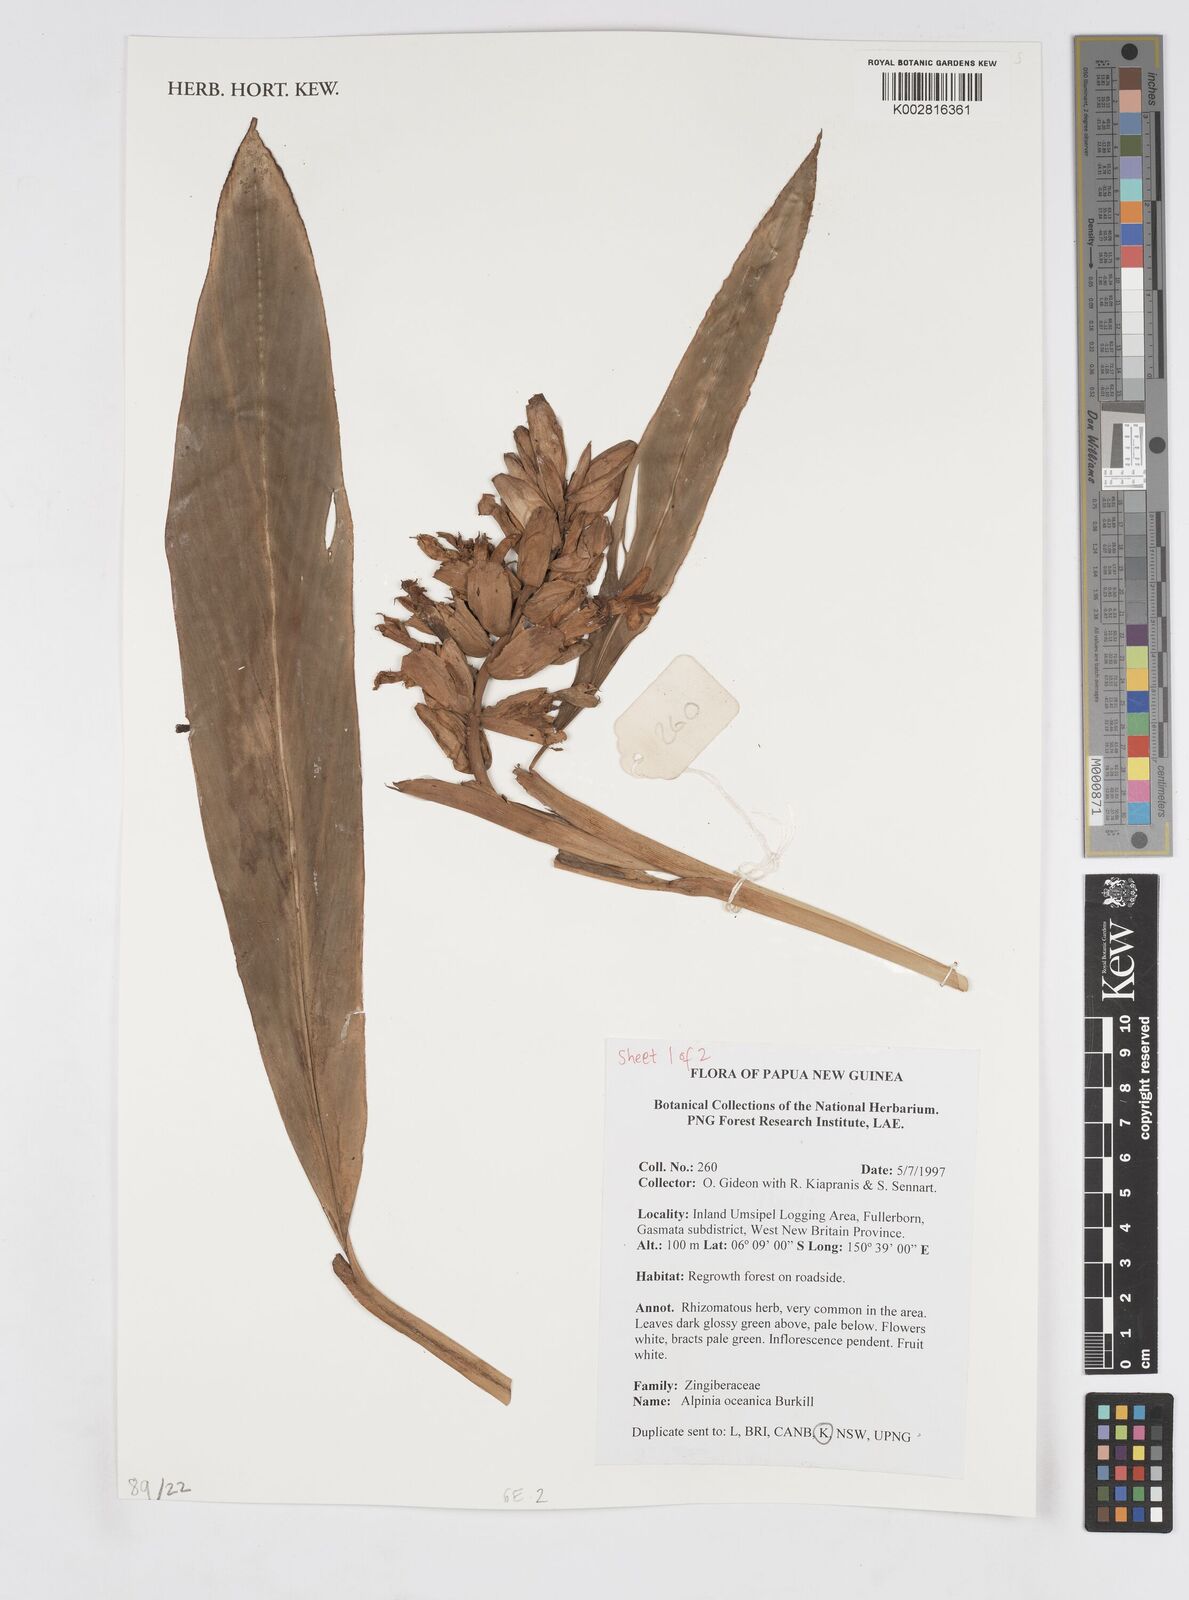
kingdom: Plantae
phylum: Tracheophyta
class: Liliopsida
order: Zingiberales
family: Zingiberaceae
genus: Alpinia
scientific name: Alpinia oceanica
